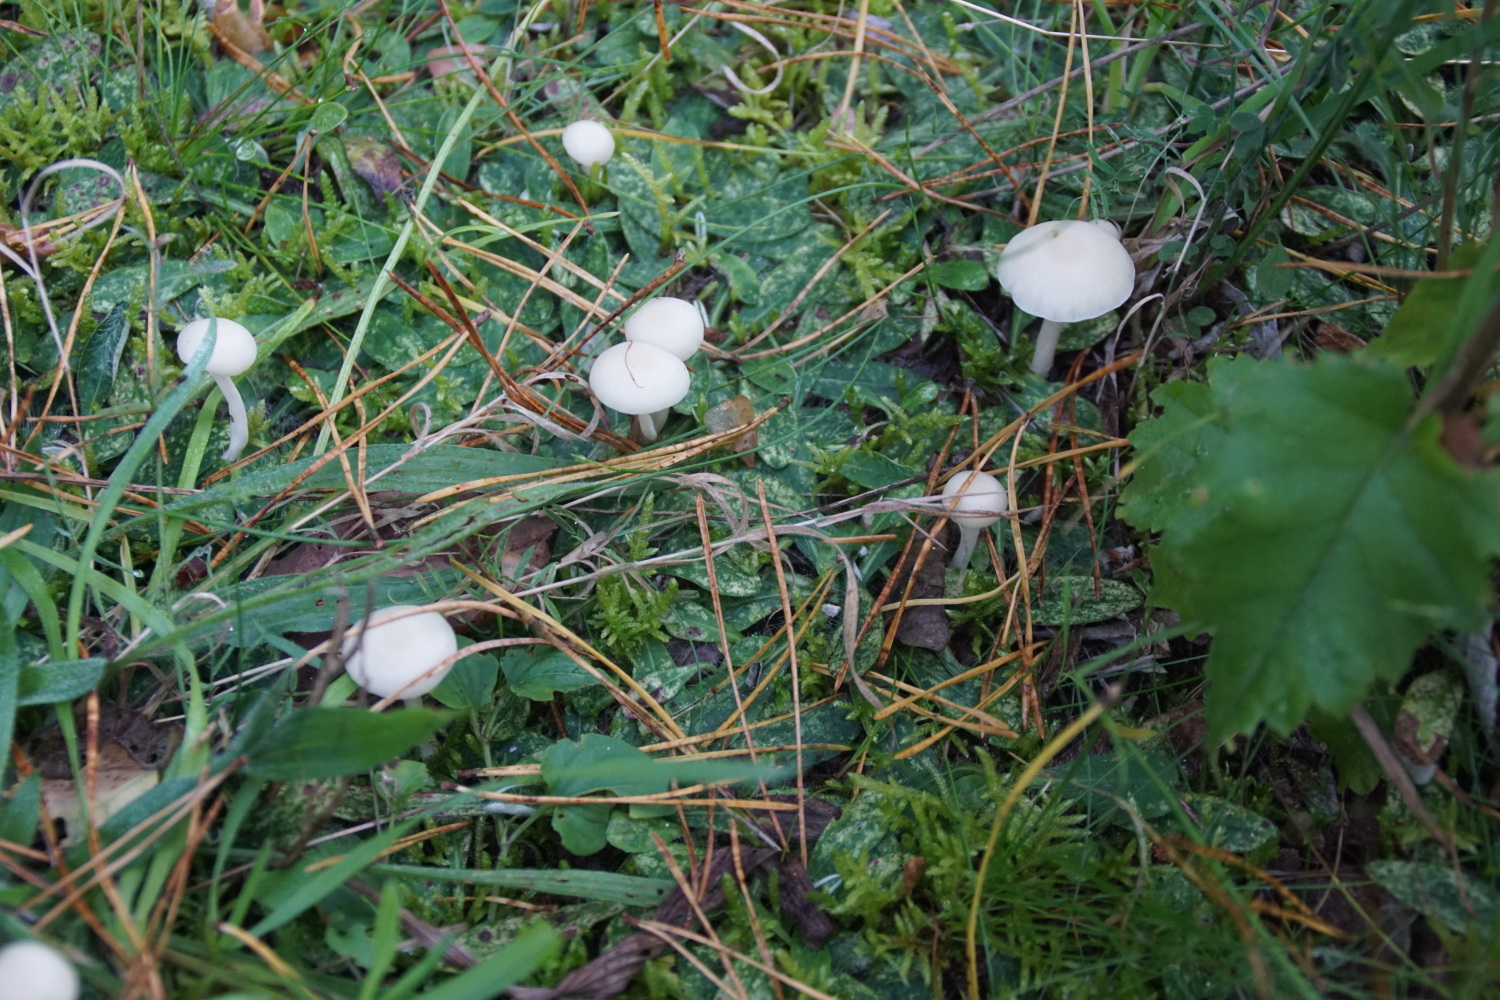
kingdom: Fungi
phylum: Basidiomycota
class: Agaricomycetes
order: Agaricales
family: Hygrophoraceae
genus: Cuphophyllus
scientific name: Cuphophyllus virgineus
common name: snehvid vokshat
